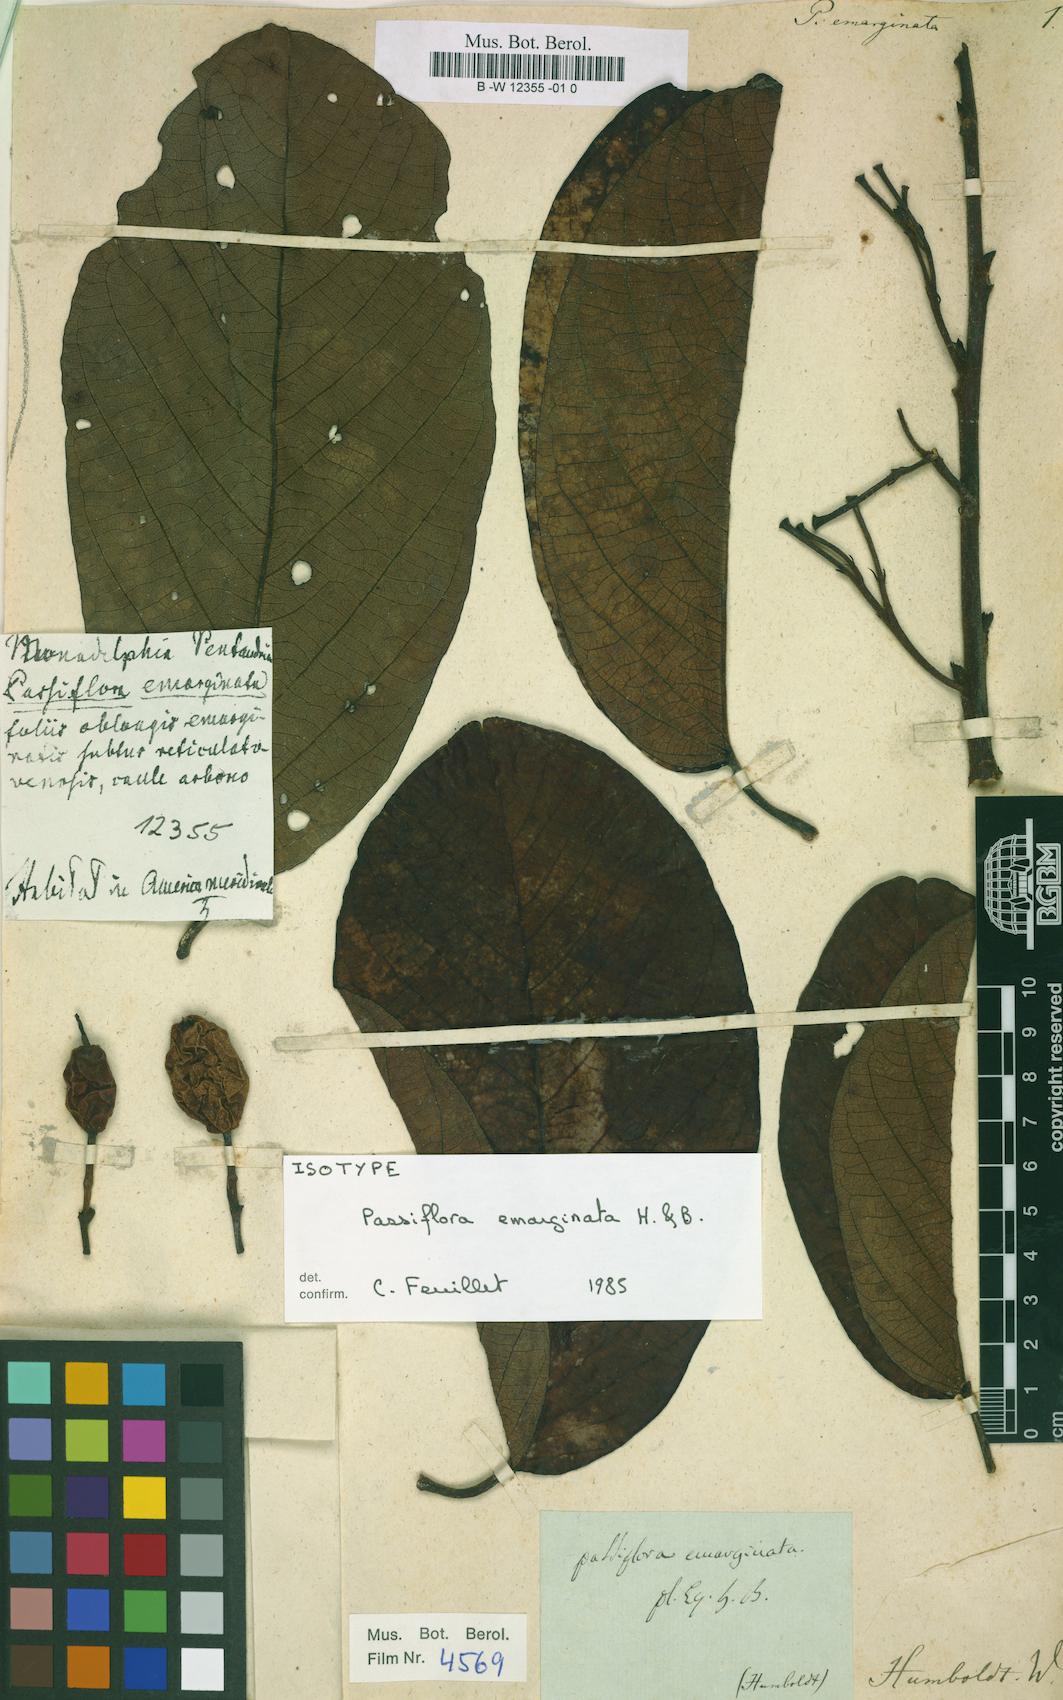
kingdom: Plantae
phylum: Tracheophyta
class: Magnoliopsida
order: Malpighiales
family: Passifloraceae
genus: Passiflora
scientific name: Passiflora emarginata
